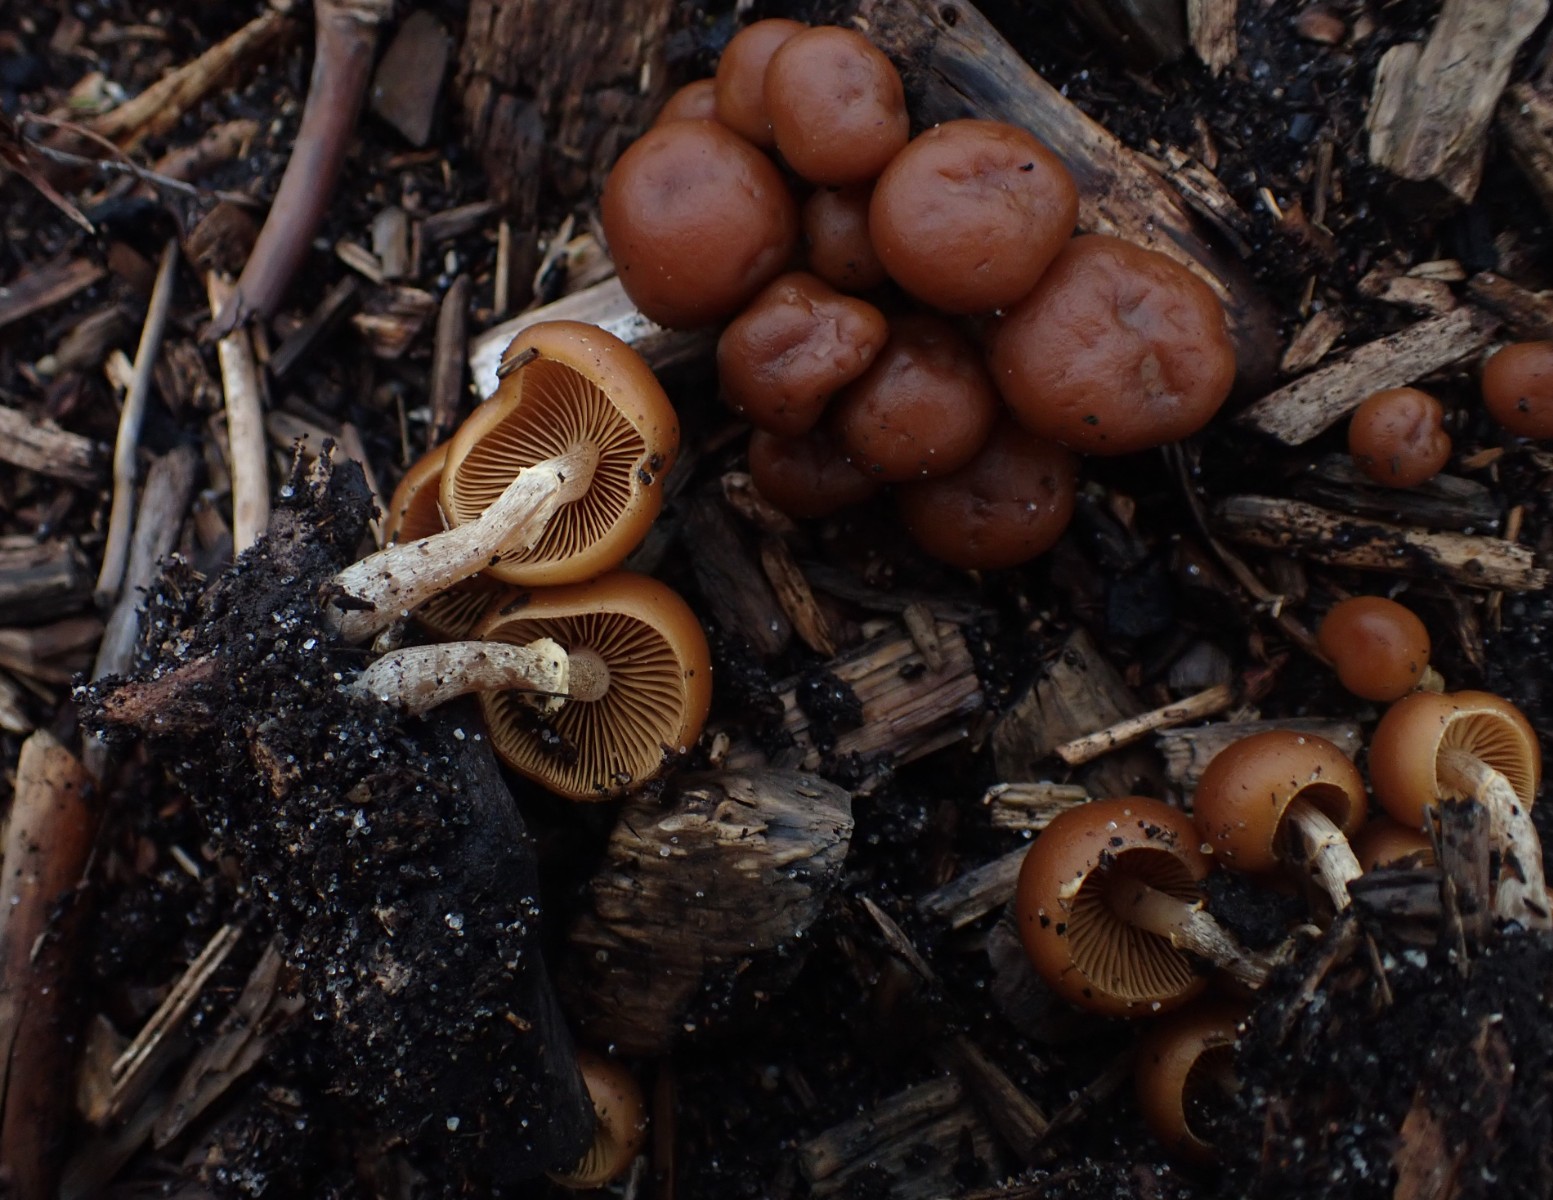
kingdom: Fungi
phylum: Basidiomycota
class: Agaricomycetes
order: Agaricales
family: Hymenogastraceae
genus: Galerina
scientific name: Galerina marginata
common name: randbæltet hjelmhat
